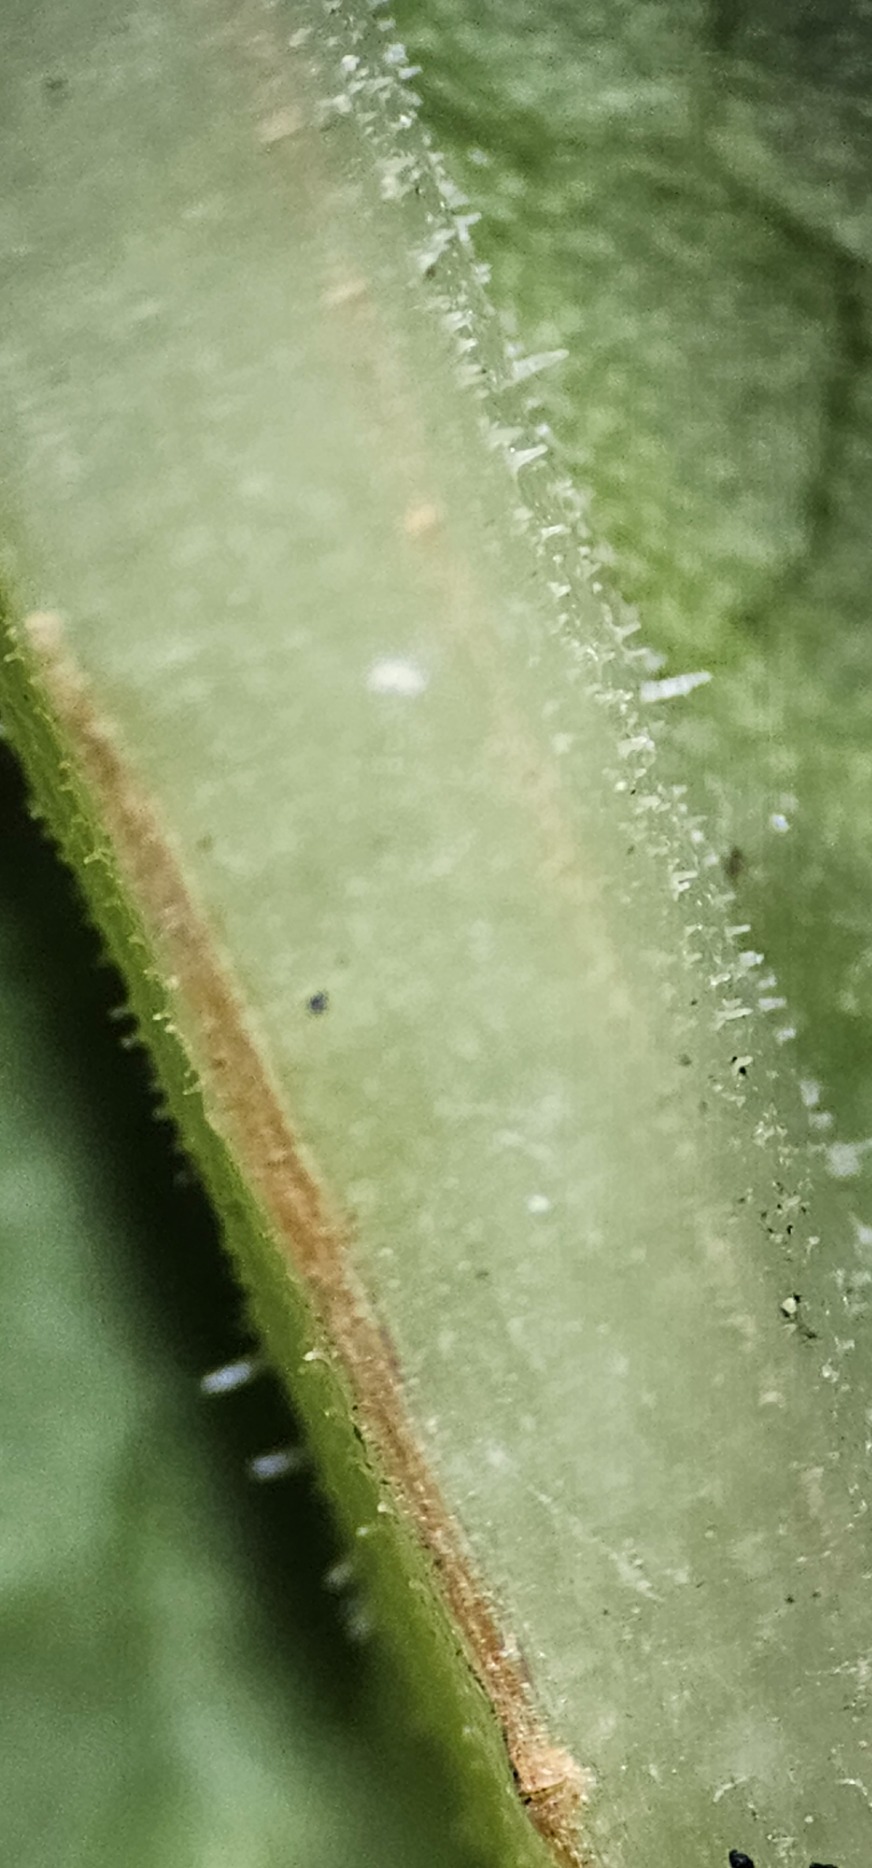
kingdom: Plantae
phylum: Tracheophyta
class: Magnoliopsida
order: Caryophyllales
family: Polygonaceae
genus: Reynoutria
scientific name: Reynoutria bohemica
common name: Hybrid-pileurt
